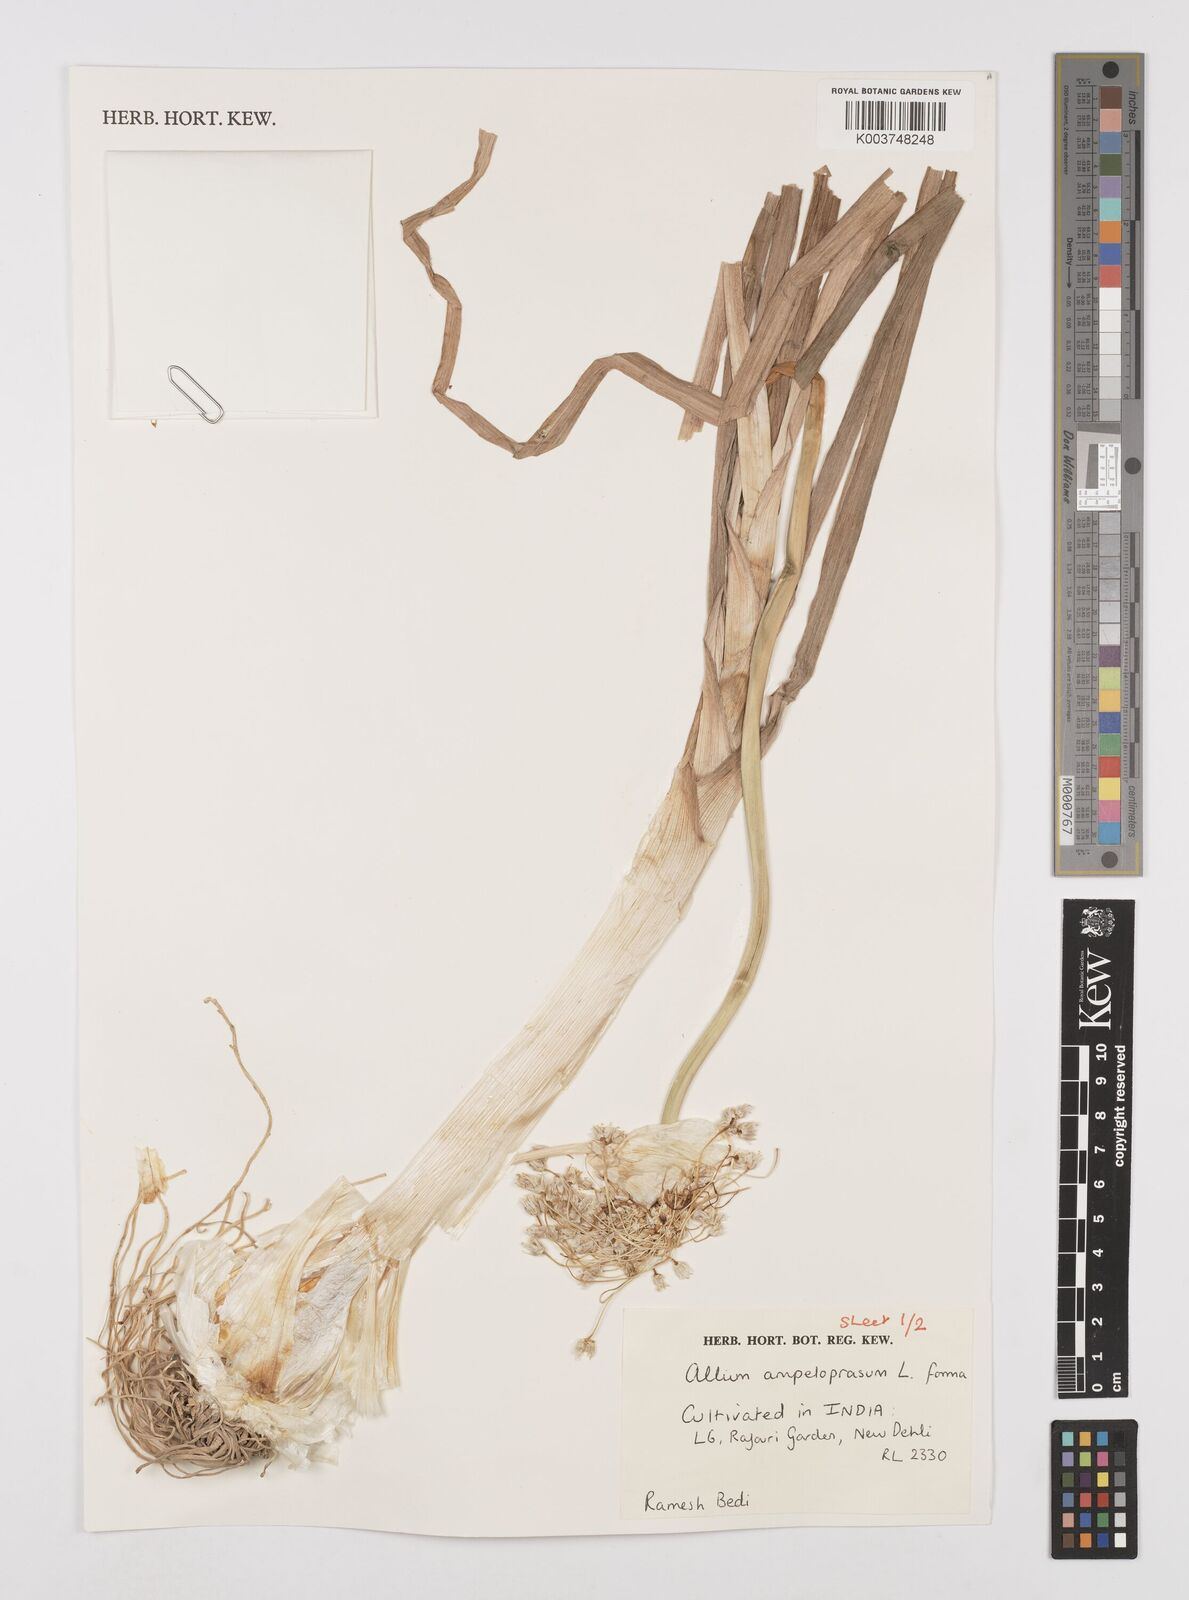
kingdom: Plantae
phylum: Tracheophyta
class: Liliopsida
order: Asparagales
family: Amaryllidaceae
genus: Allium
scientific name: Allium ampeloprasum
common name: Wild leek
